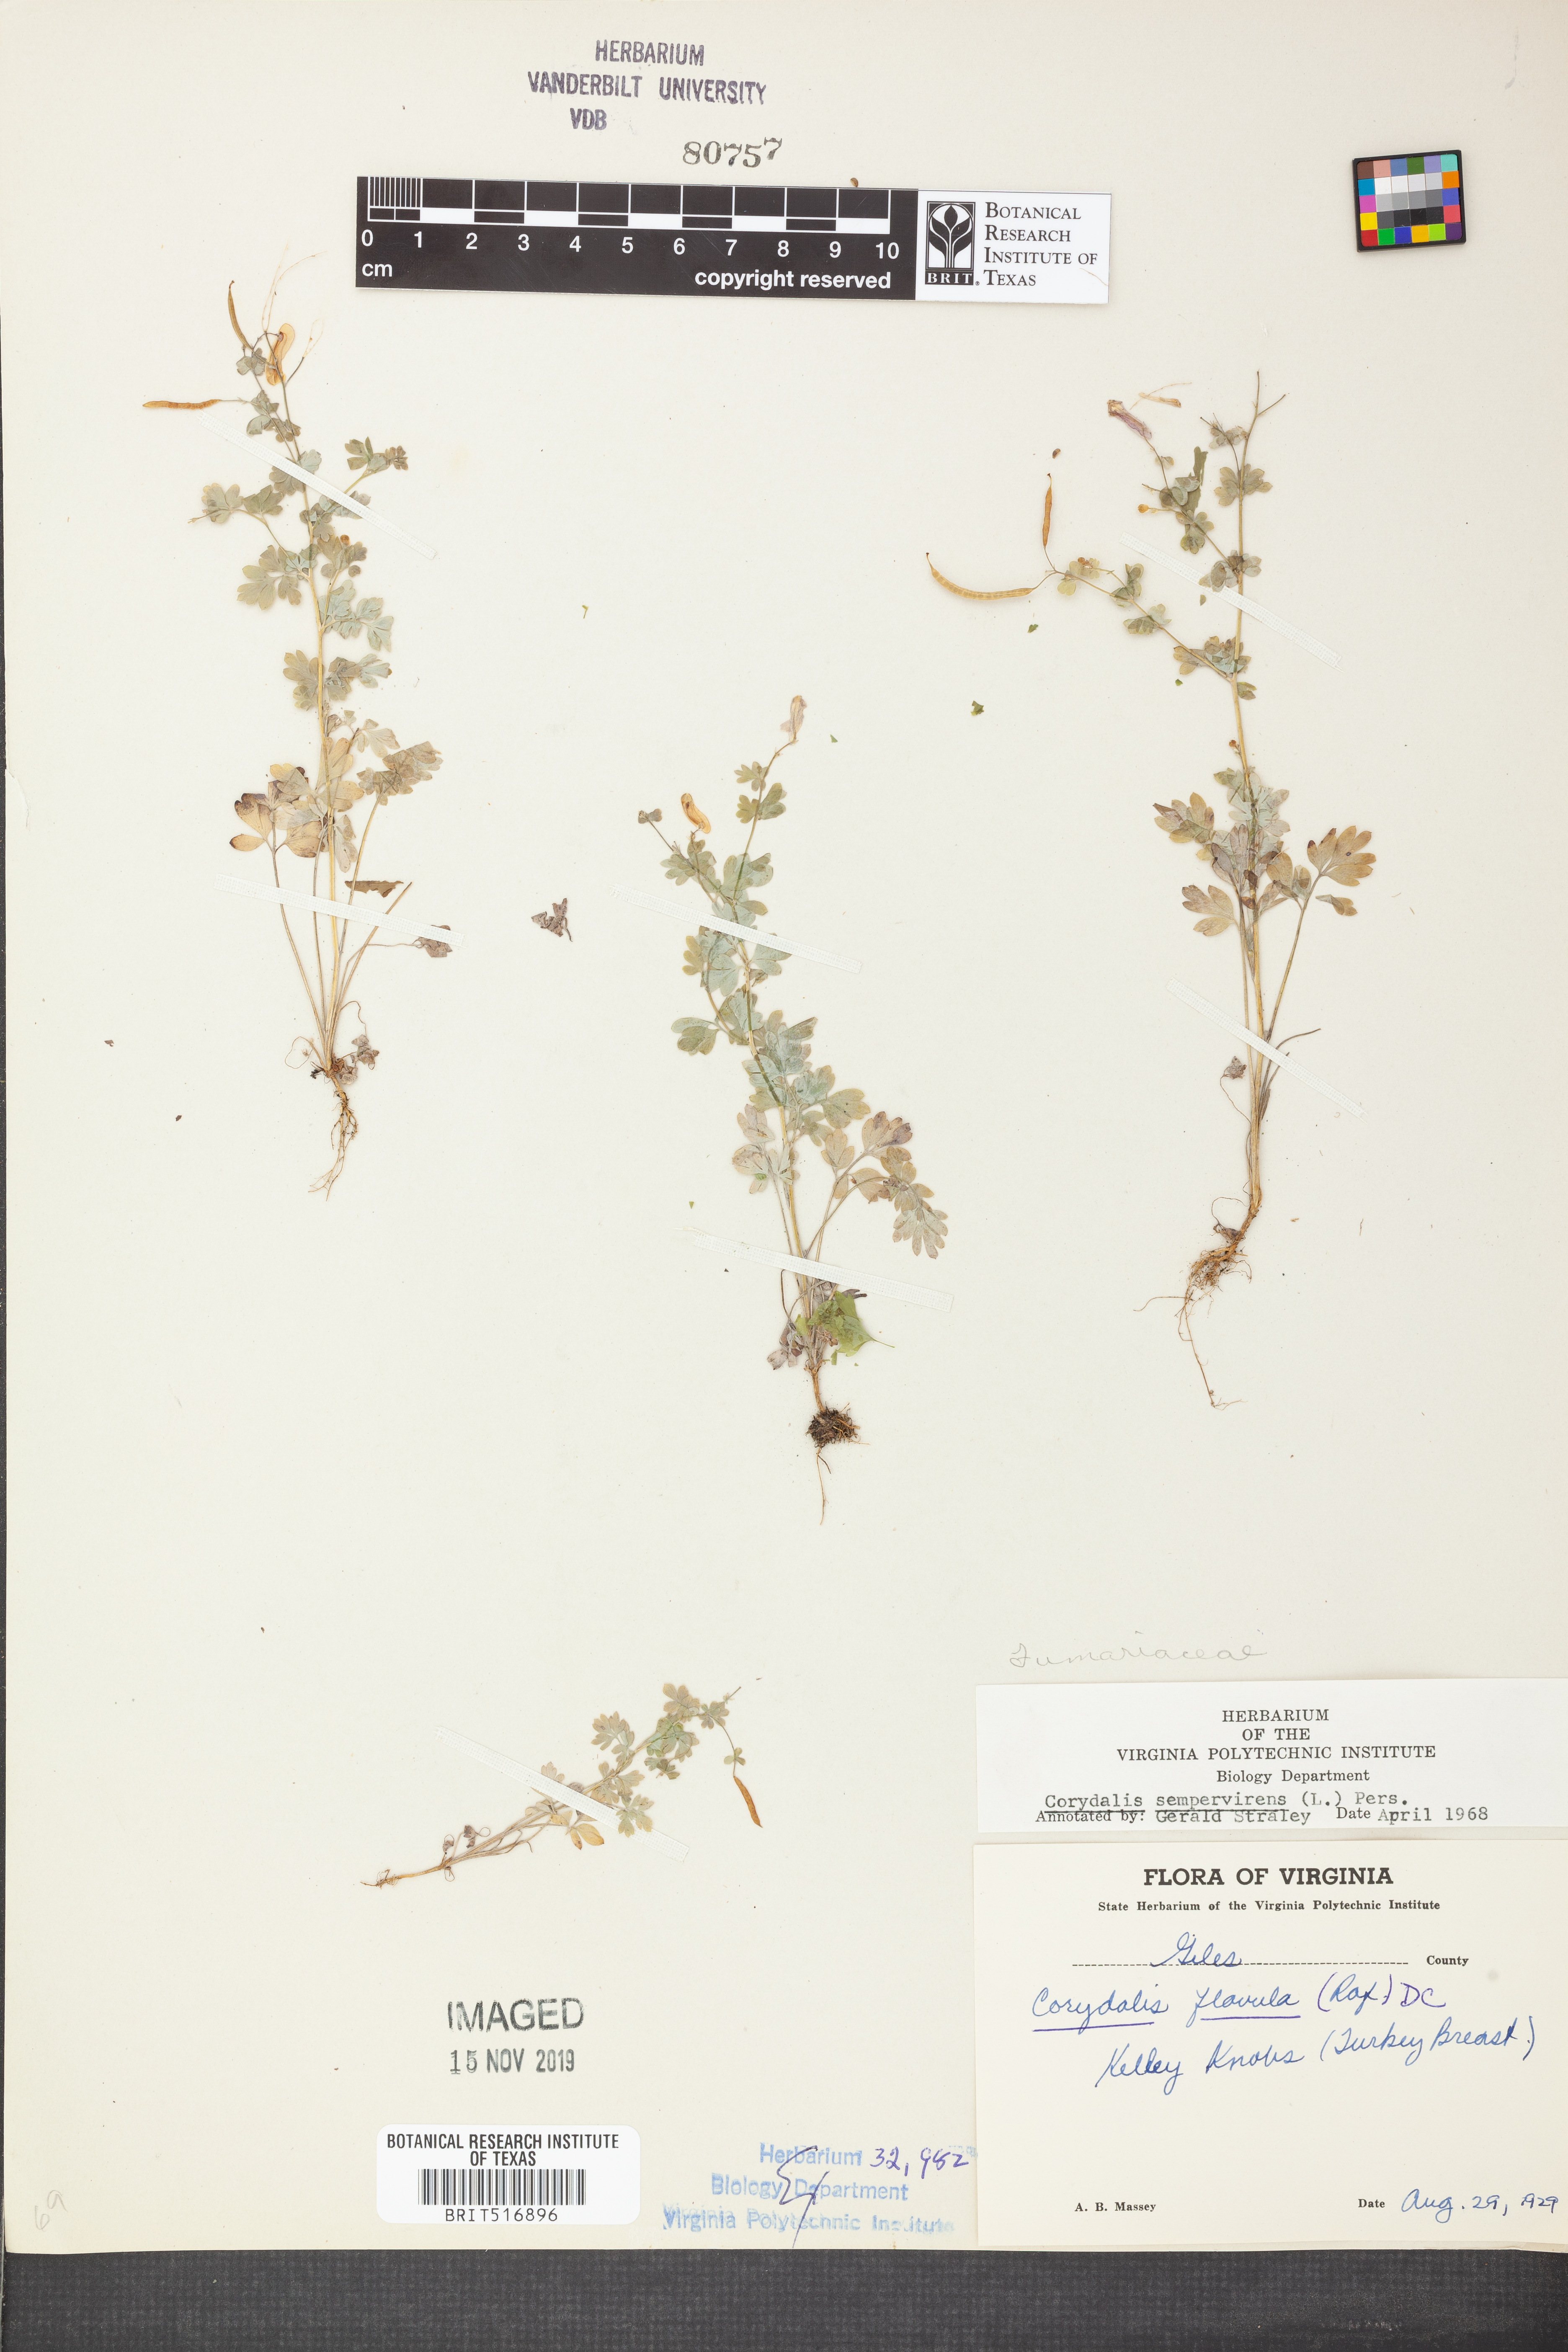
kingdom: Plantae
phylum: Tracheophyta
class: Magnoliopsida
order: Ranunculales
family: Papaveraceae
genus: Capnoides
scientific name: Capnoides sempervirens
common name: Rock harlequin
